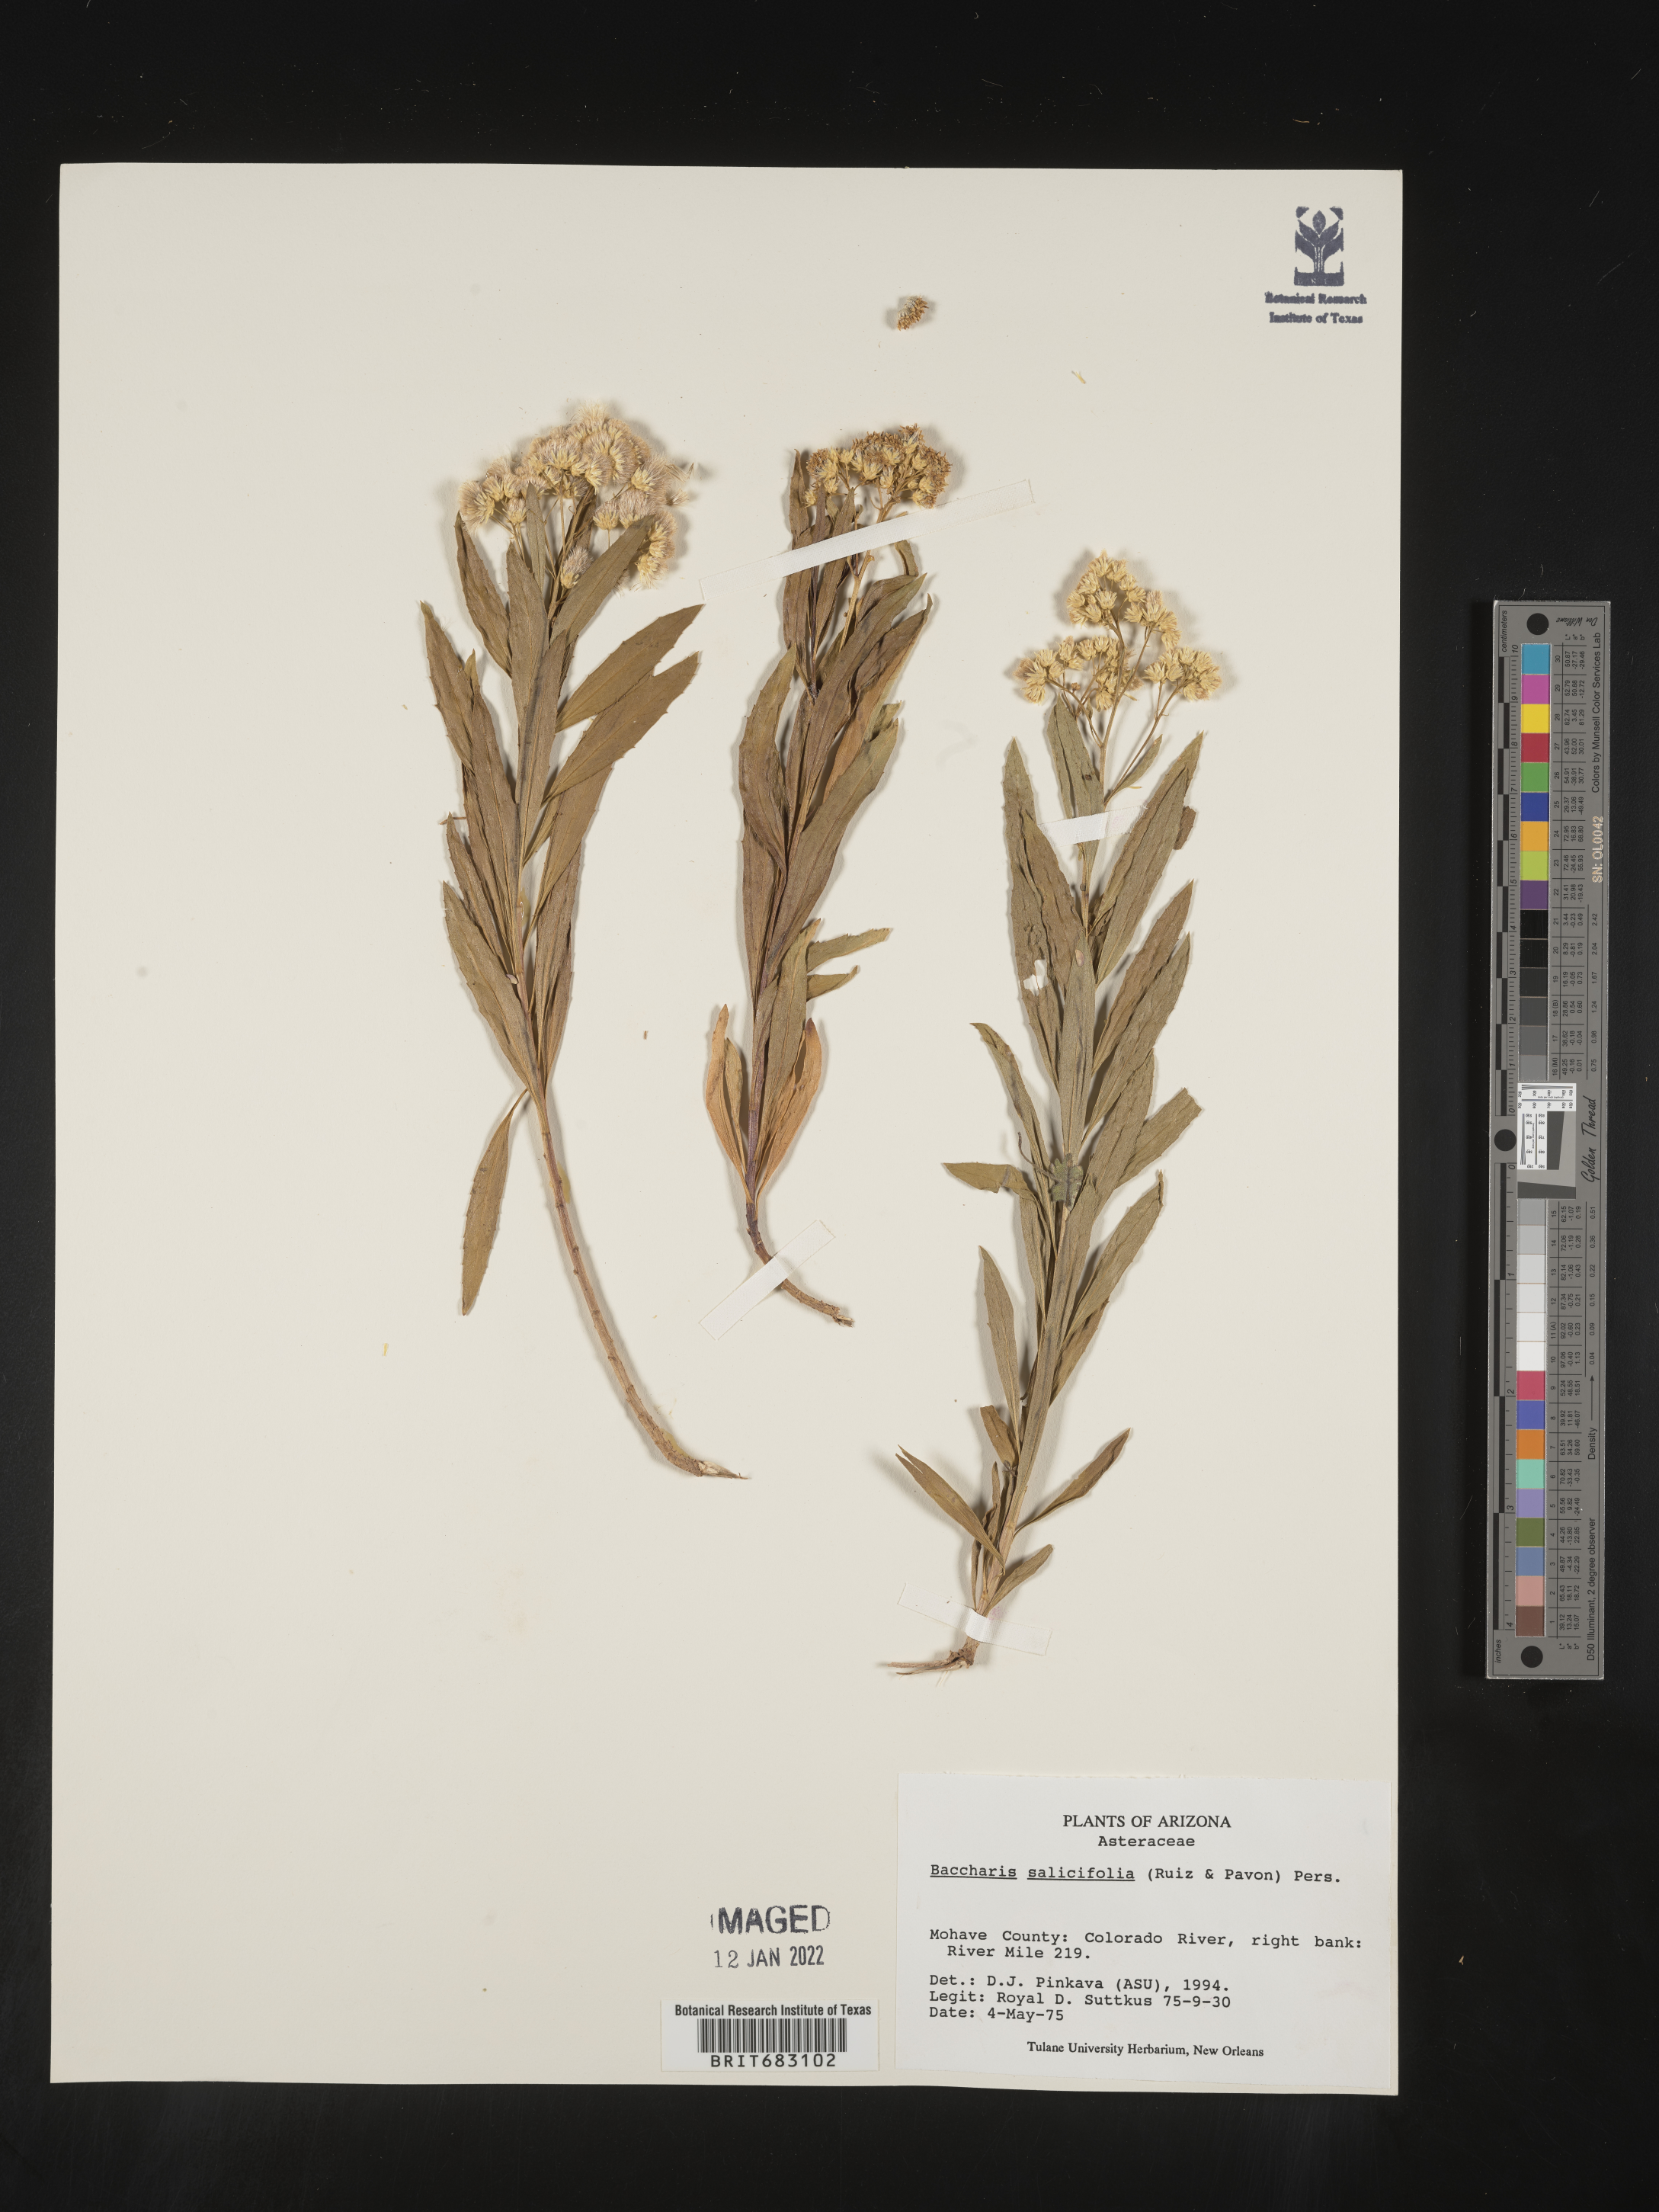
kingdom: Plantae
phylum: Tracheophyta
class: Magnoliopsida
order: Asterales
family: Asteraceae
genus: Baccharis
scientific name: Baccharis salicifolia
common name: Sticky baccharis
